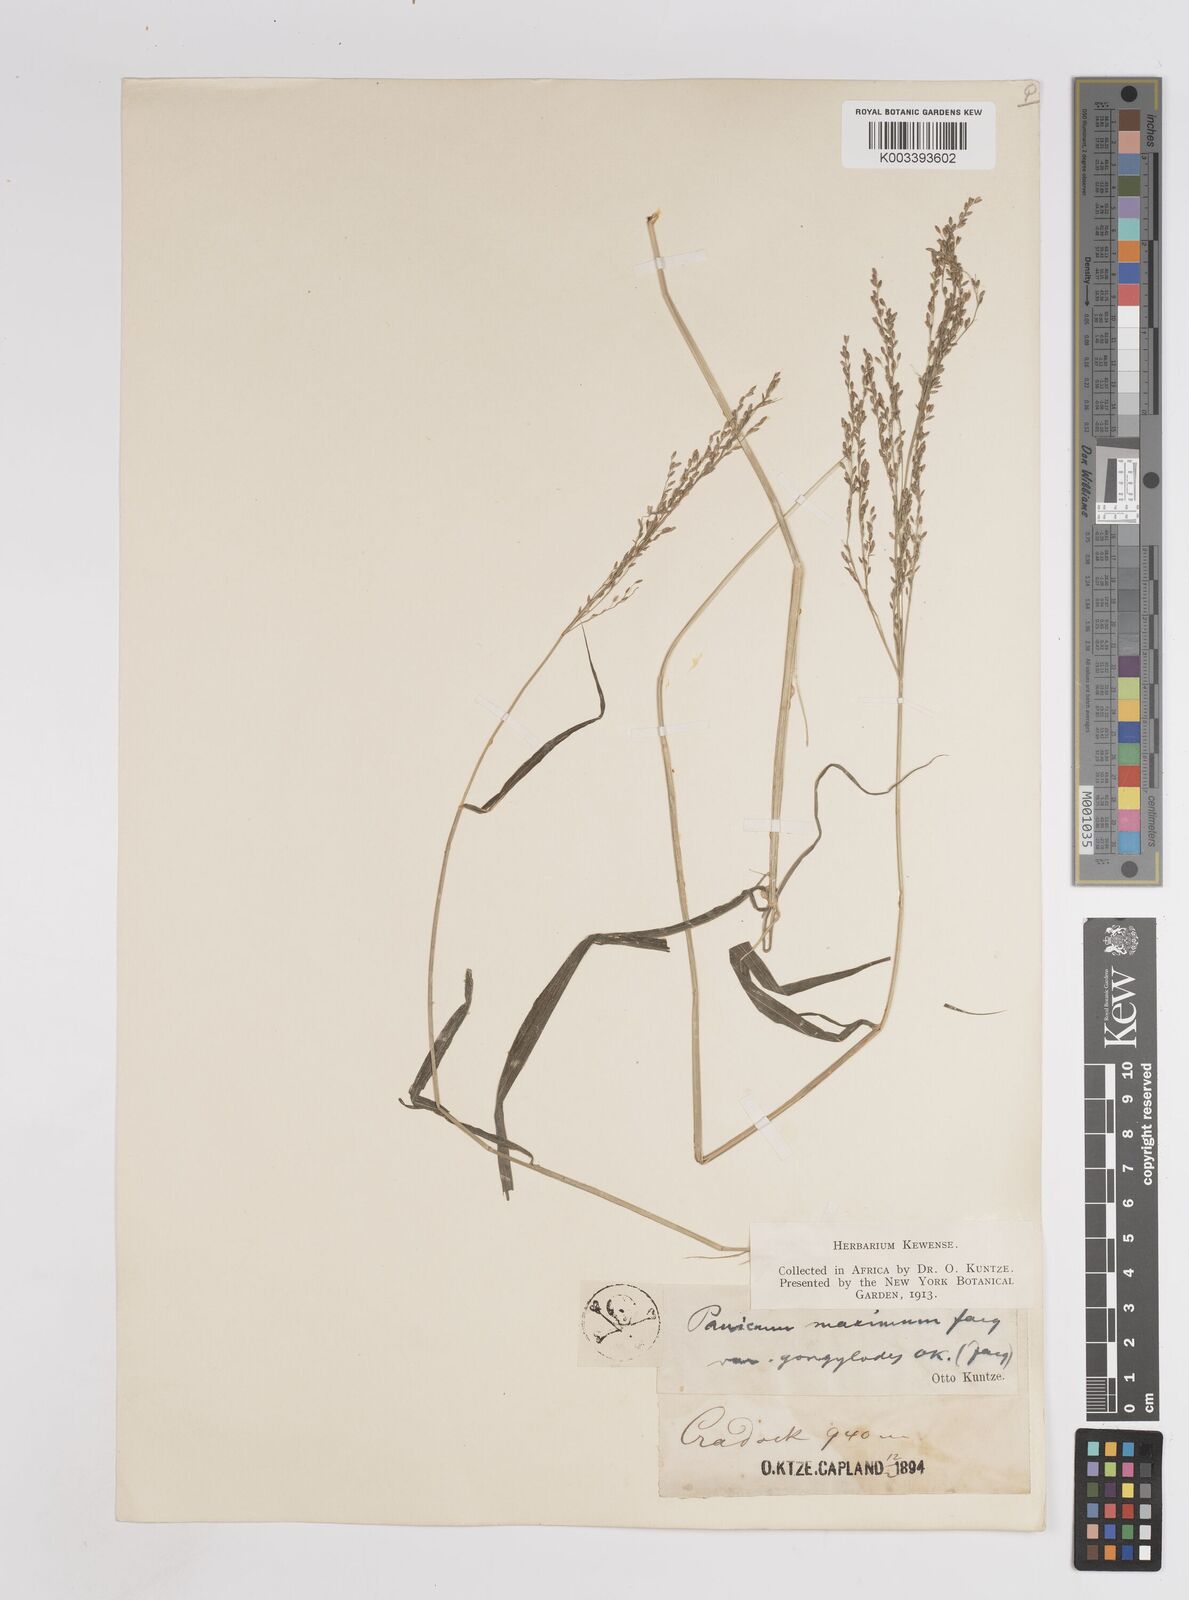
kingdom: Plantae
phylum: Tracheophyta
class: Liliopsida
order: Poales
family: Poaceae
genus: Megathyrsus
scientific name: Megathyrsus maximus
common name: Guineagrass
